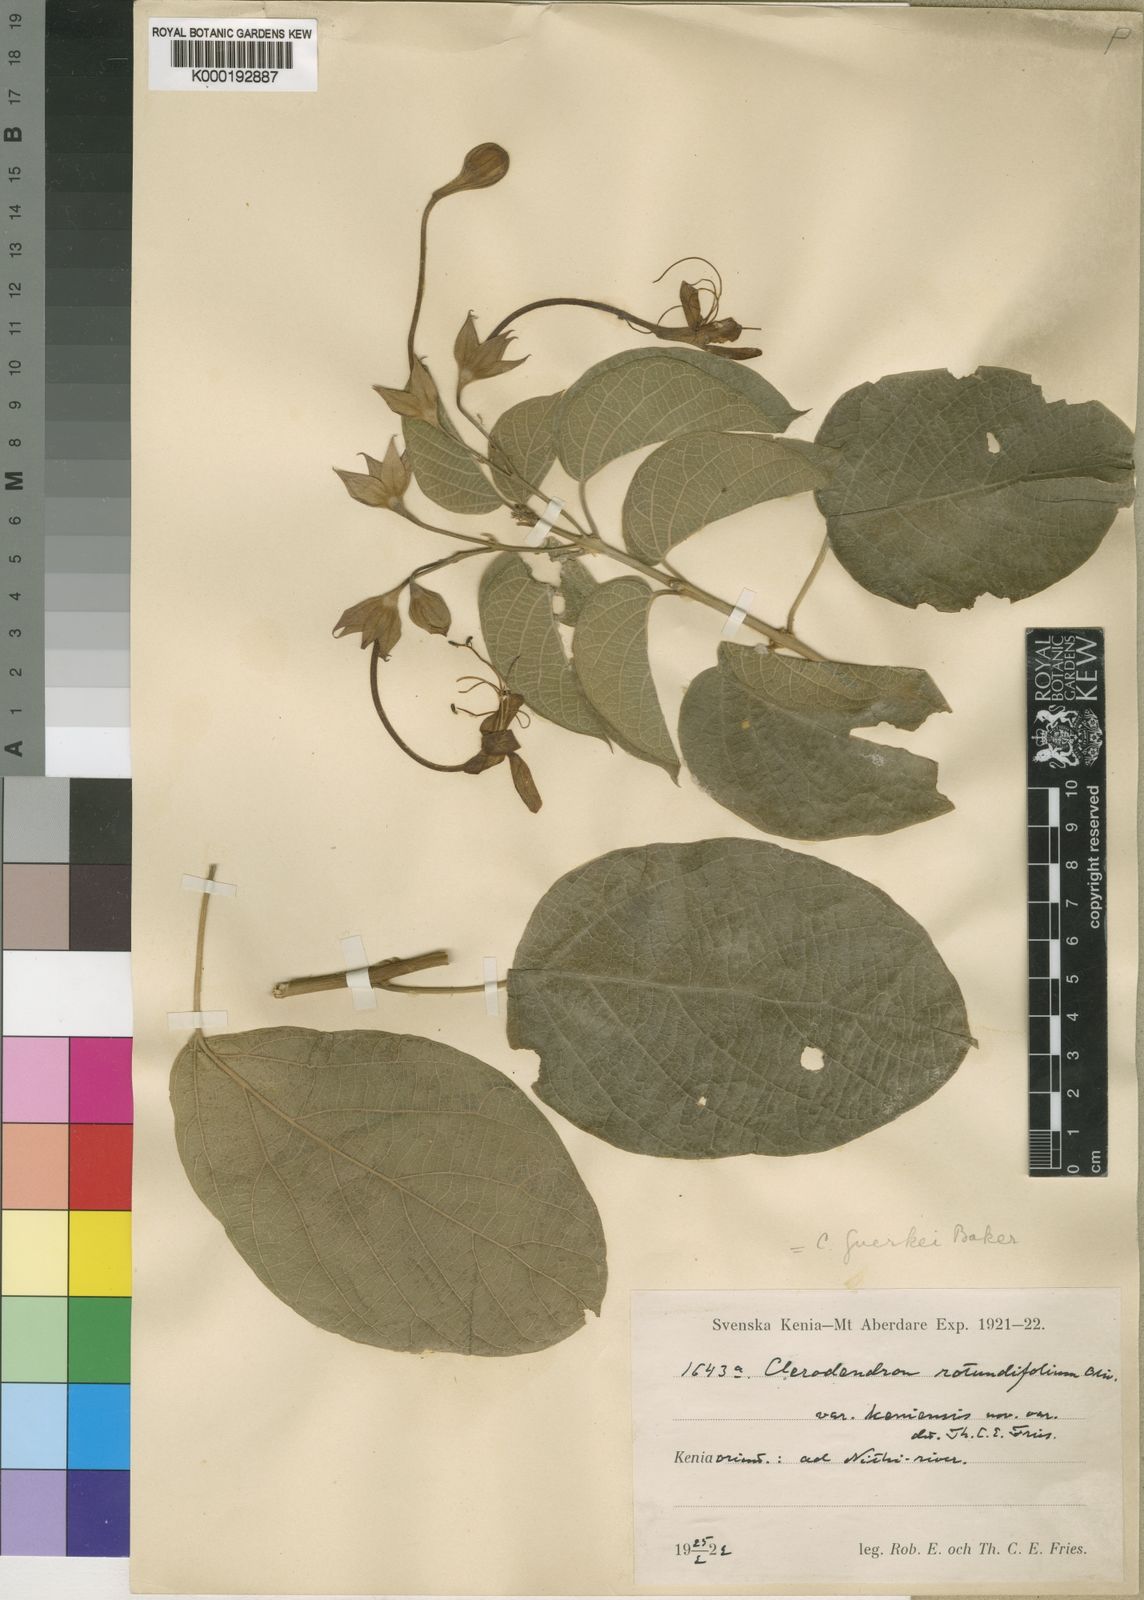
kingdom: Plantae
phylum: Tracheophyta
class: Magnoliopsida
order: Lamiales
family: Lamiaceae
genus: Clerodendrum
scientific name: Clerodendrum rotundifolium
